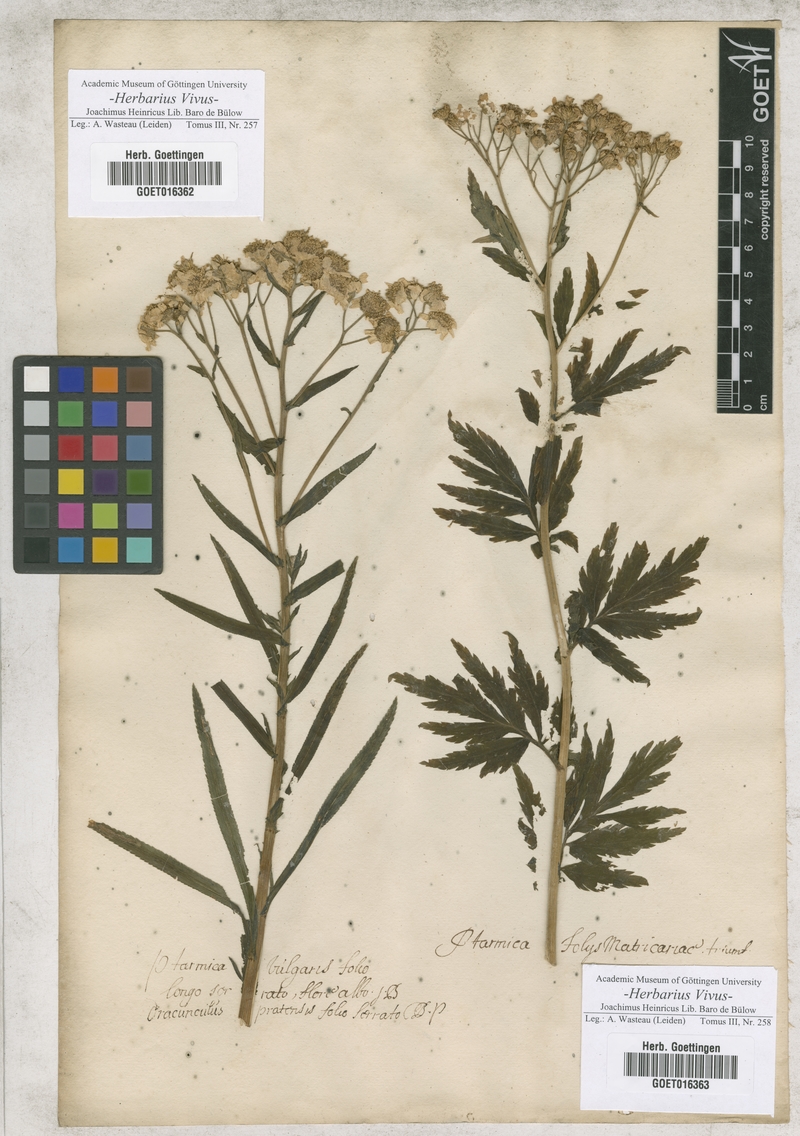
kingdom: Plantae
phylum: Tracheophyta
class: Magnoliopsida
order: Asterales
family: Asteraceae
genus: Achillea
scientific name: Achillea ptarmica
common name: Sneezeweed
